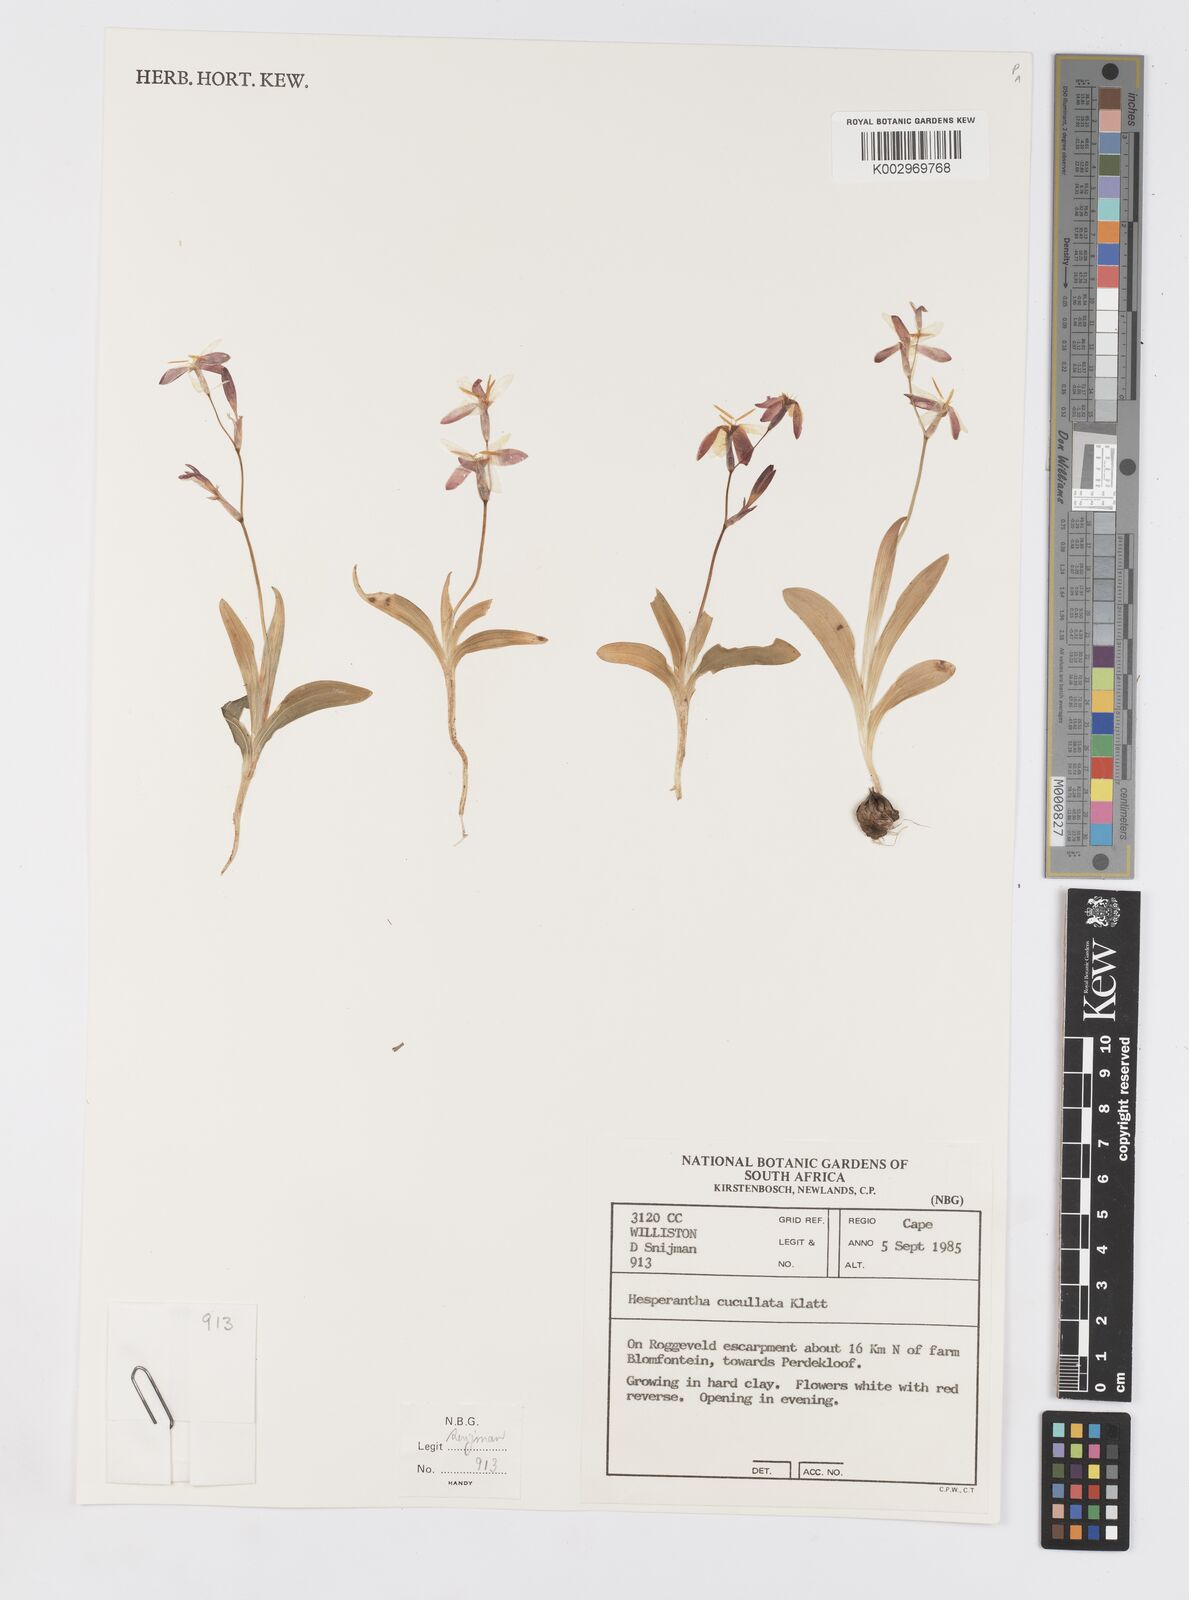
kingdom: Plantae
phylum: Tracheophyta
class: Liliopsida
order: Asparagales
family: Iridaceae
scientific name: Iridaceae
